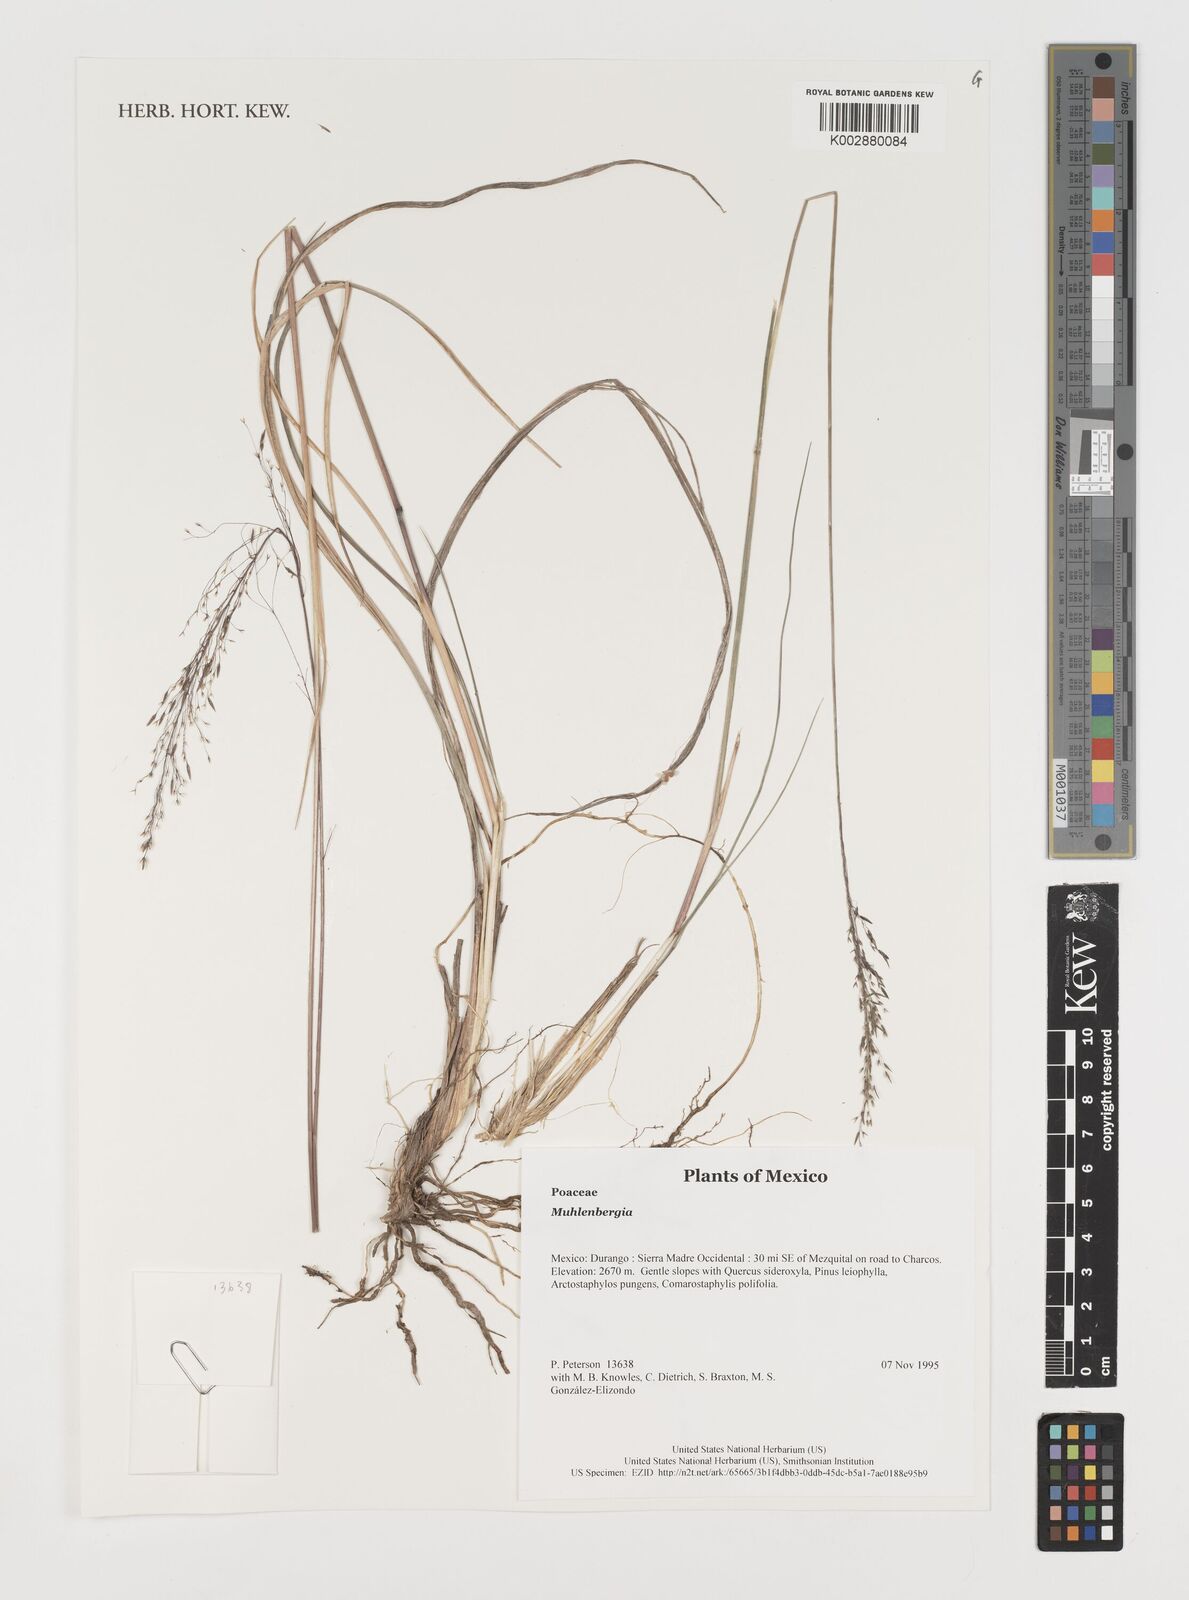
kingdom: Plantae
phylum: Tracheophyta
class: Liliopsida
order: Poales
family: Poaceae
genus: Muhlenbergia
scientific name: Muhlenbergia
